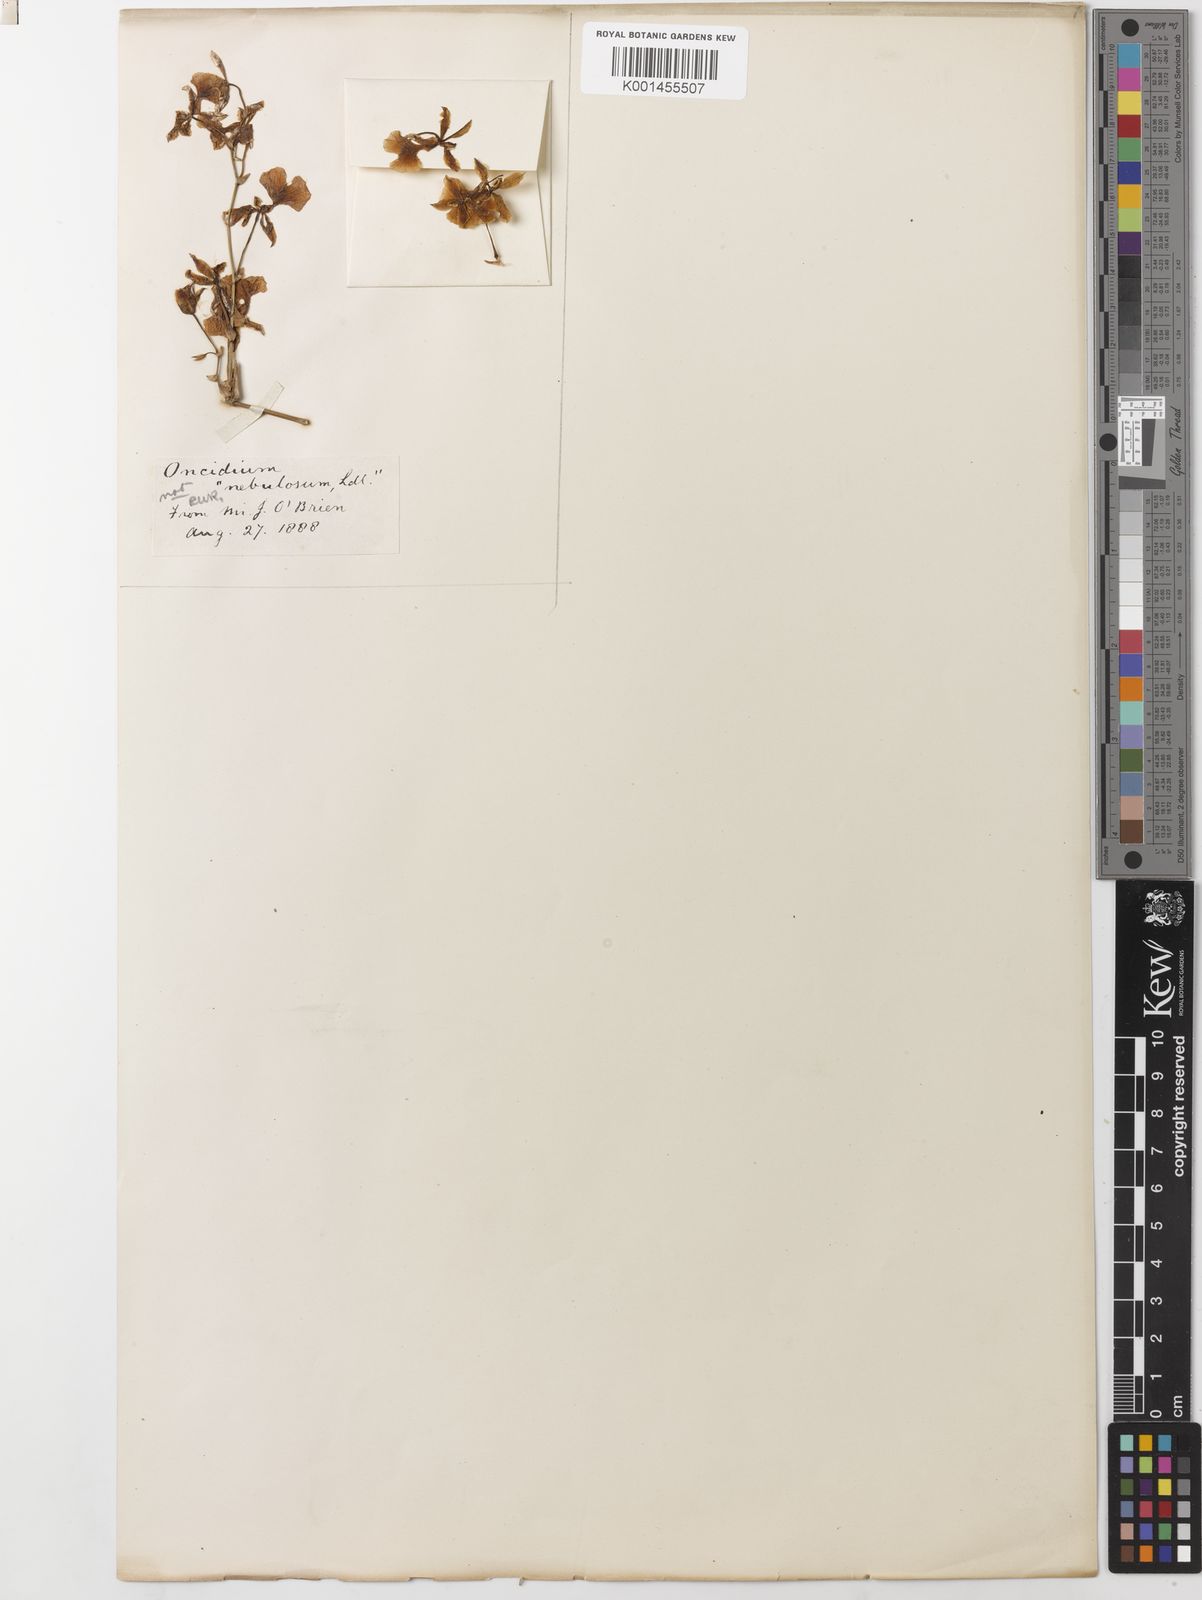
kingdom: Plantae
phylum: Tracheophyta
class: Liliopsida
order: Asparagales
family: Orchidaceae
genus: Oncidium
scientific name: Oncidium nebulosum
